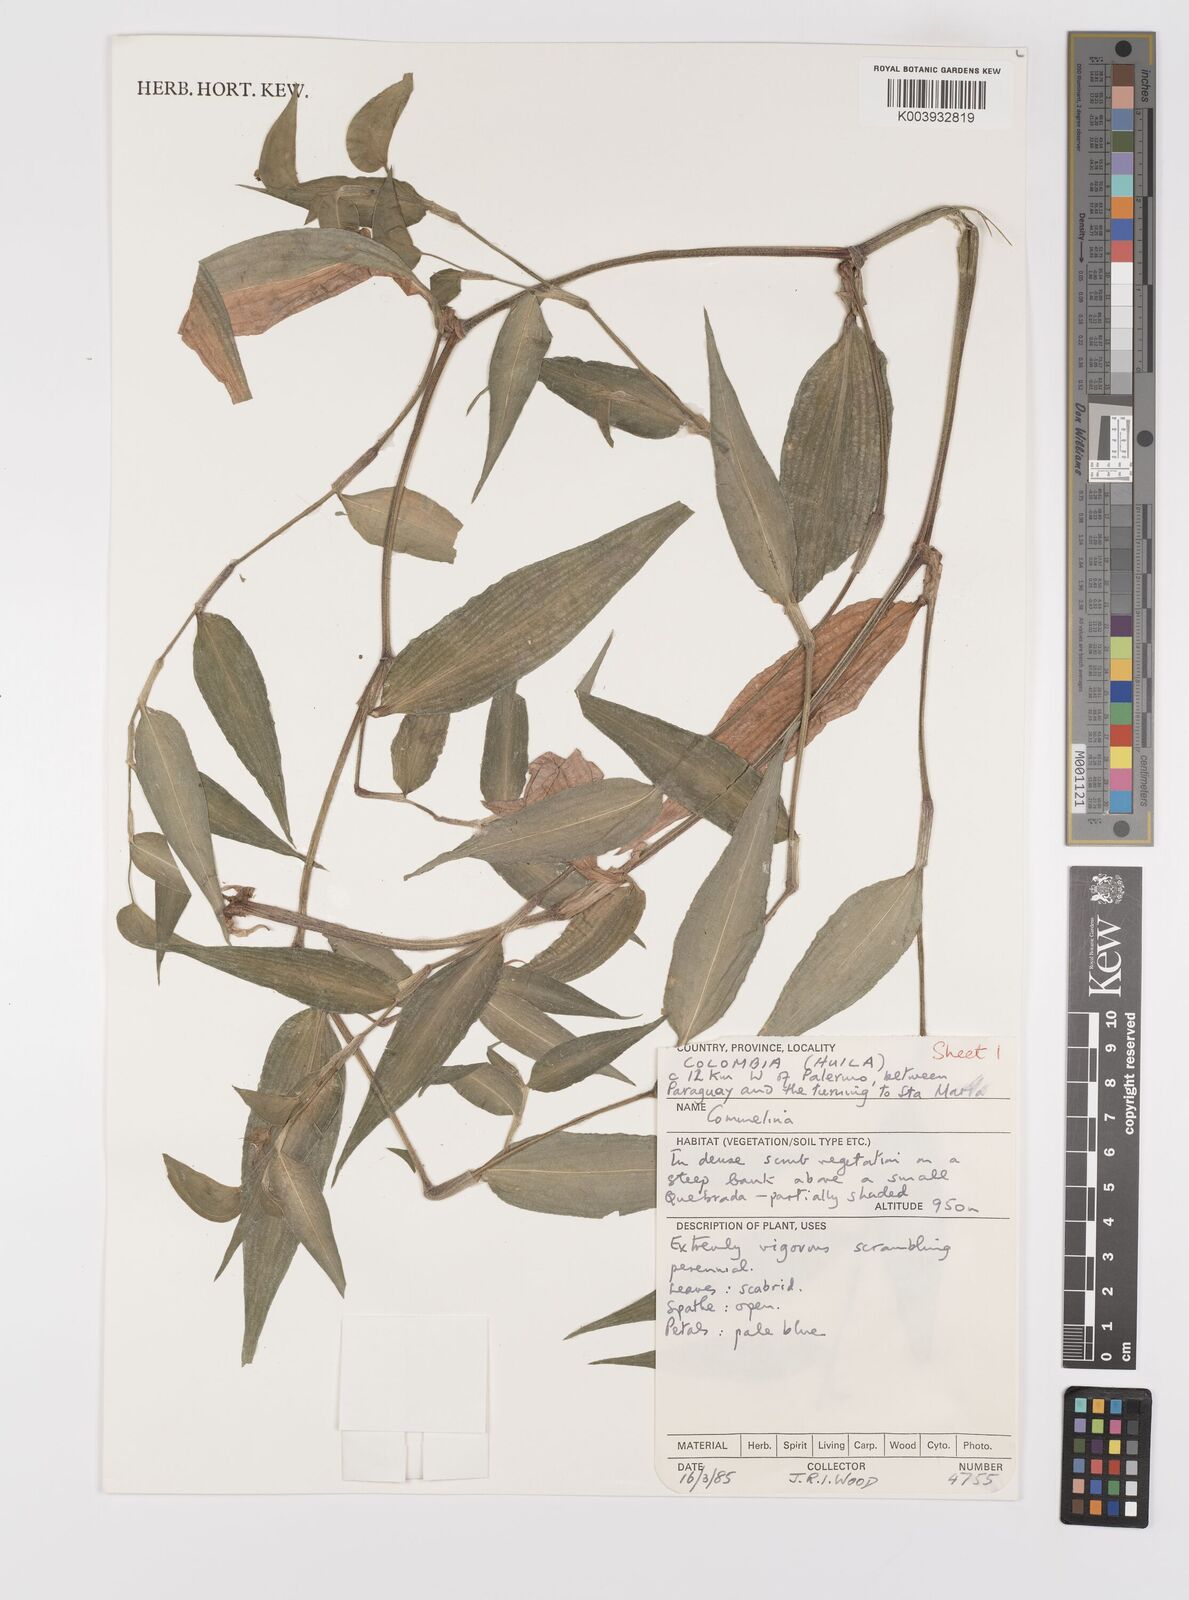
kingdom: Plantae
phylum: Tracheophyta
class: Liliopsida
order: Commelinales
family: Commelinaceae
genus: Commelina
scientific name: Commelina
